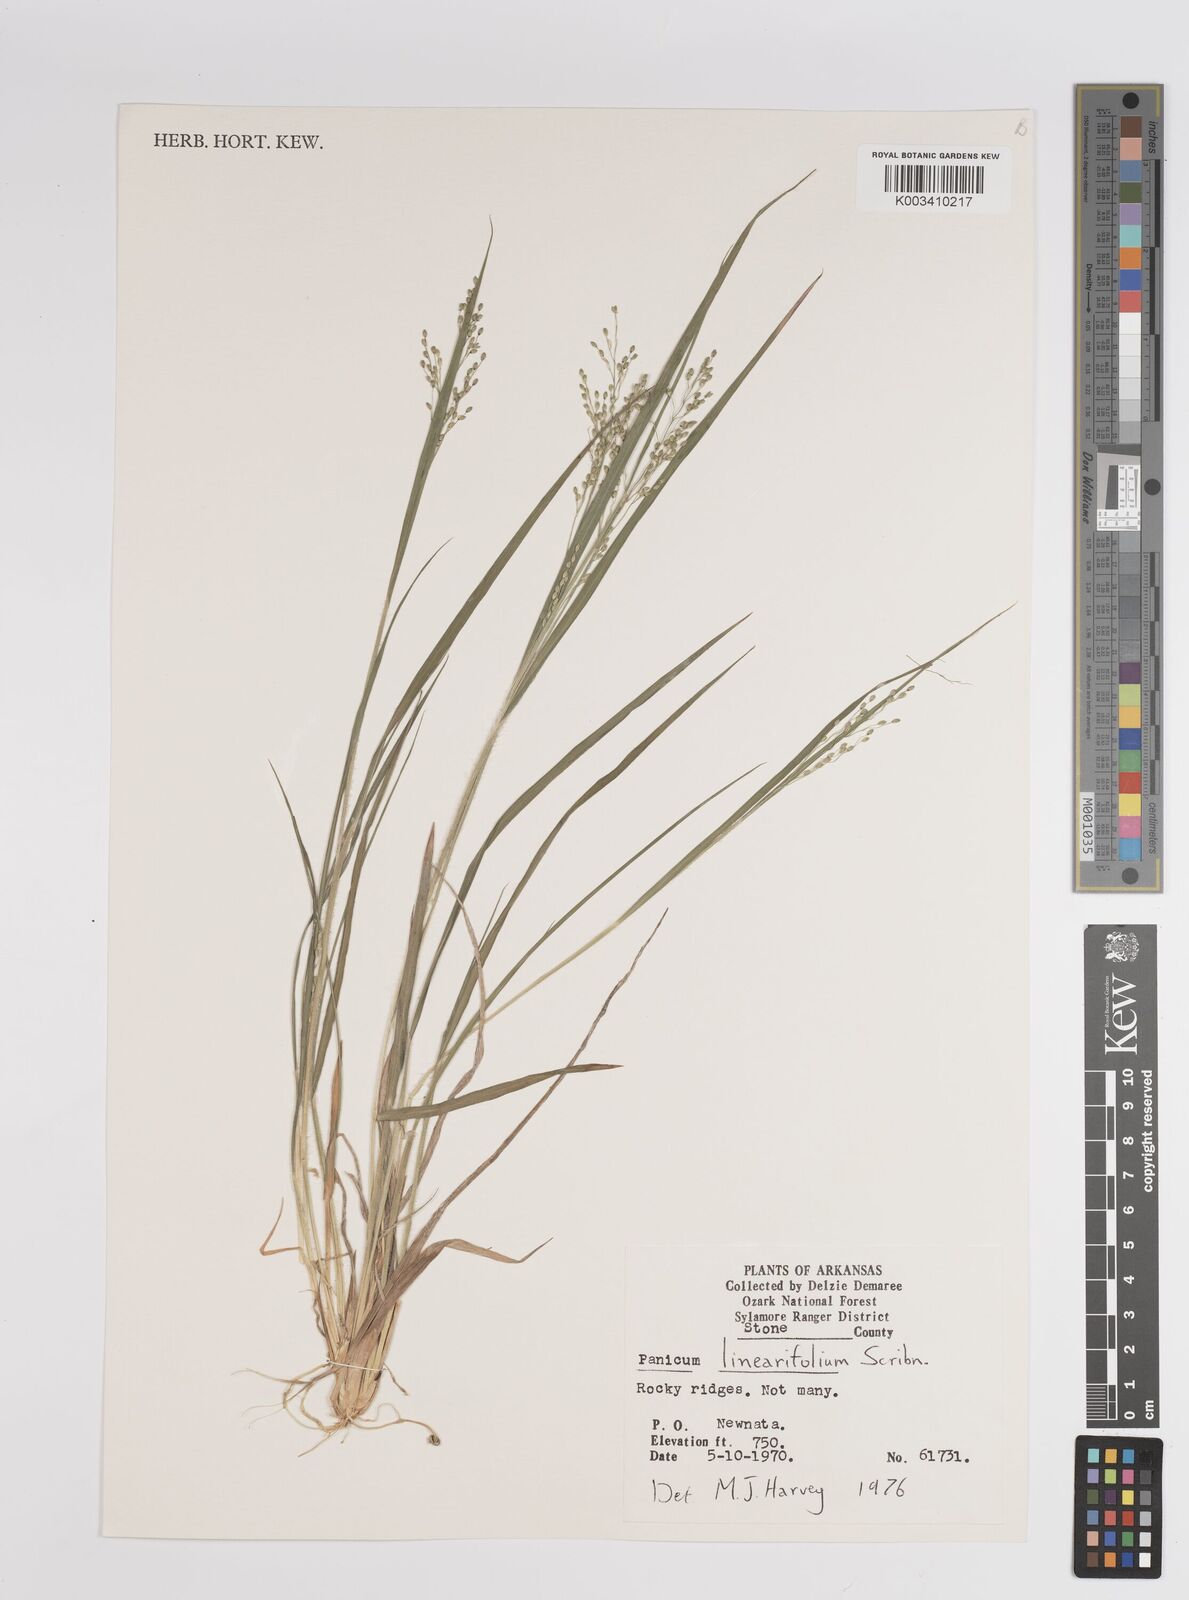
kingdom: Plantae
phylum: Tracheophyta
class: Liliopsida
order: Poales
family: Poaceae
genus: Dichanthelium
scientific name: Dichanthelium linearifolium
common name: Linear-leaved panicgrass
